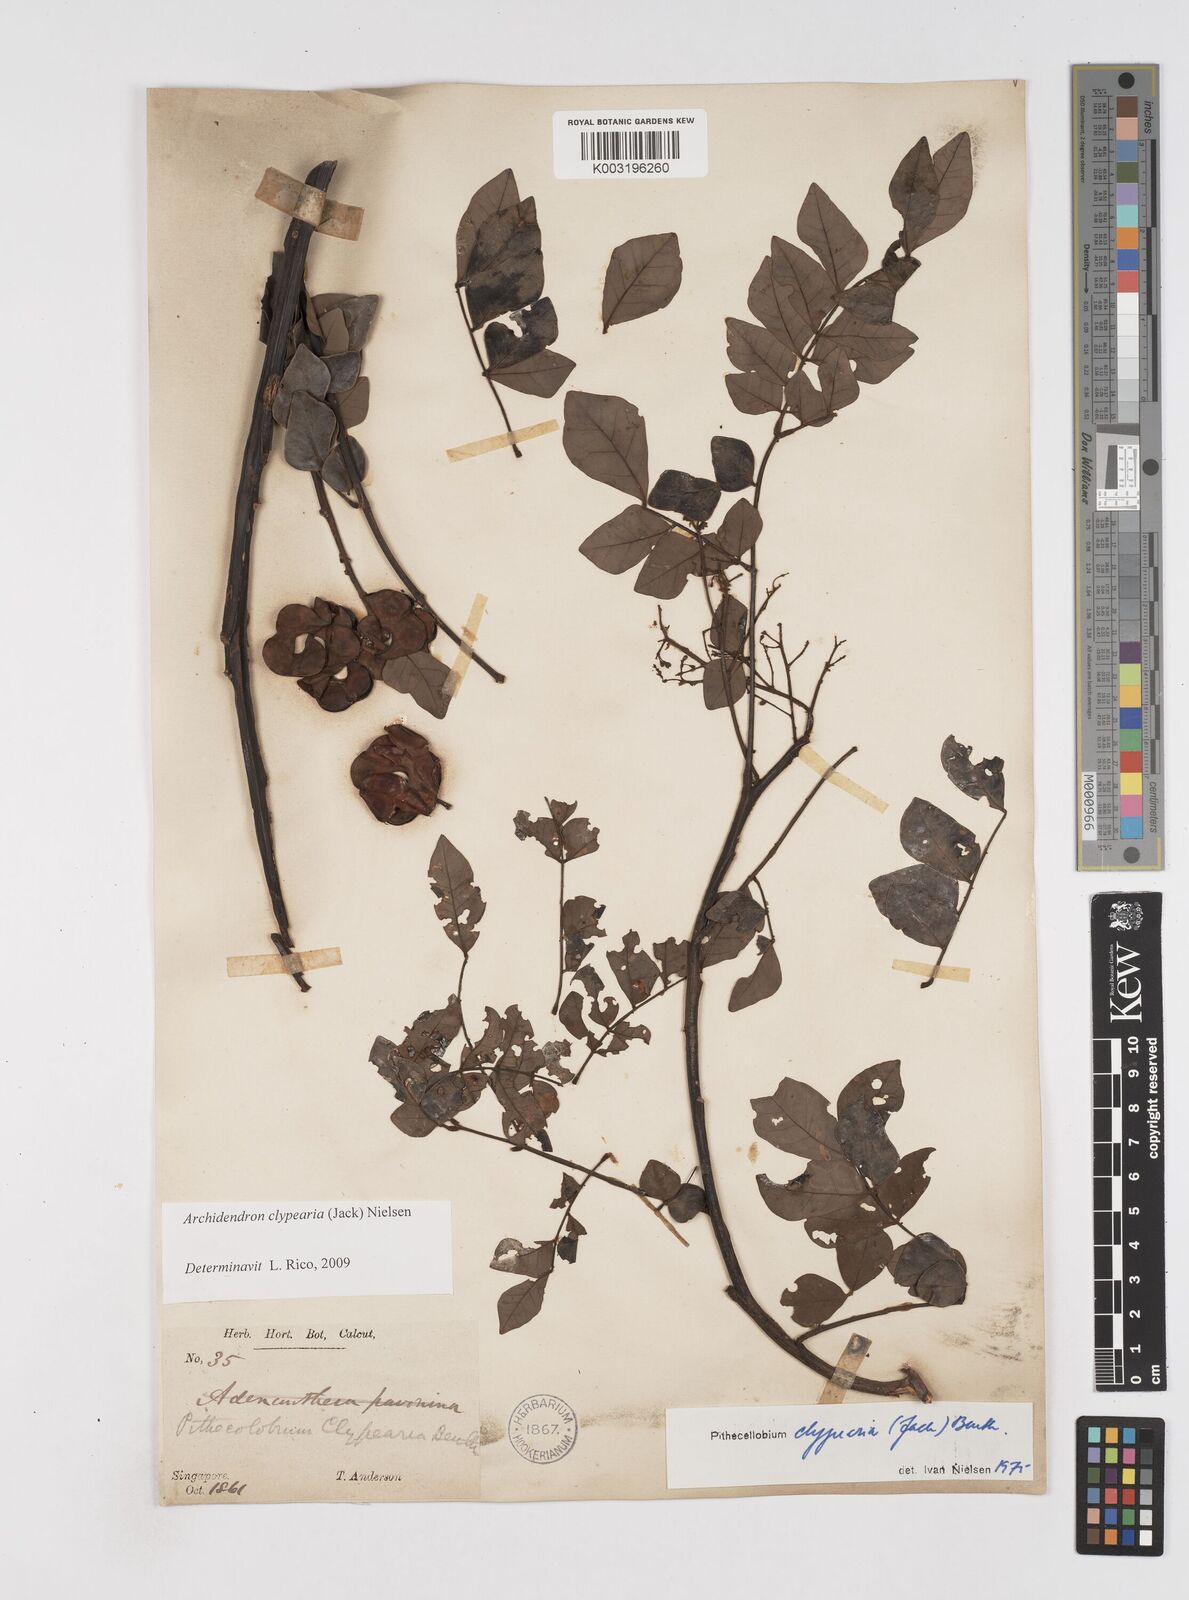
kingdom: Plantae
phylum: Tracheophyta
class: Magnoliopsida
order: Fabales
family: Fabaceae
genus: Archidendron
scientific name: Archidendron clypearia
